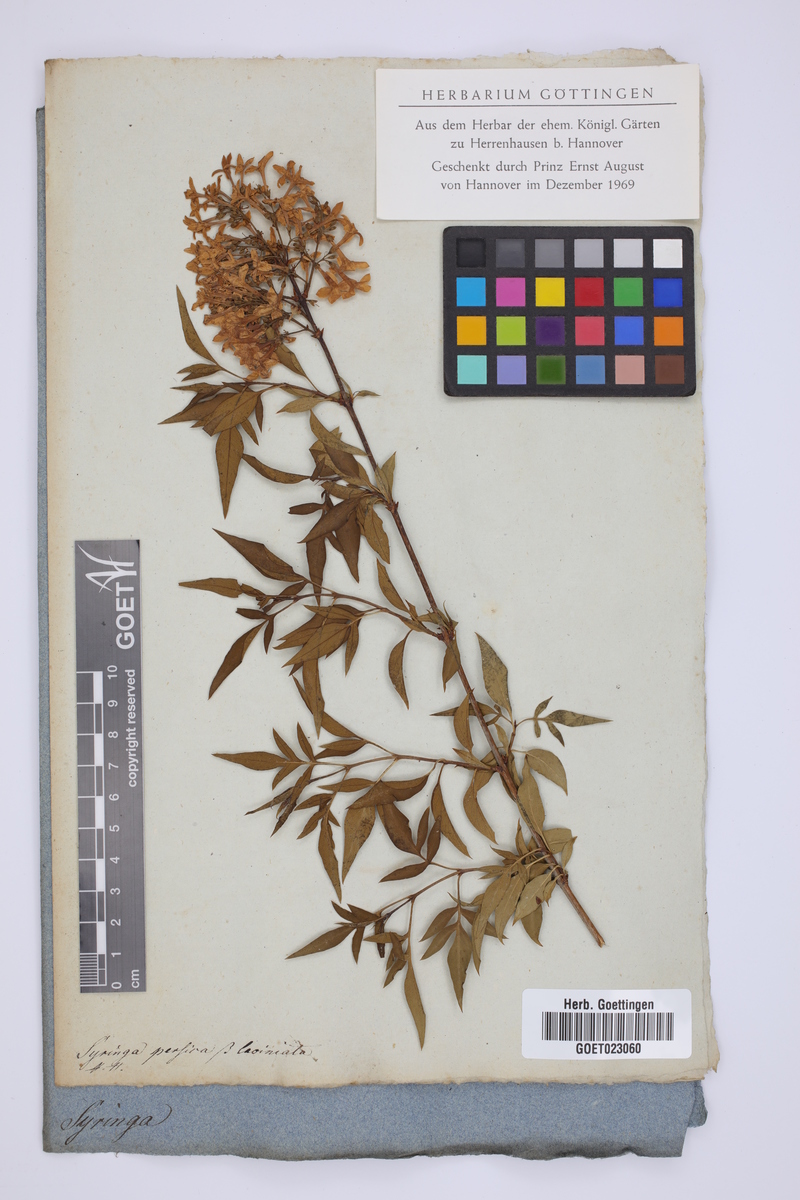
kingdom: Plantae
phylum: Tracheophyta
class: Magnoliopsida
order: Lamiales
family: Oleaceae
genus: Syringa
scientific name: Syringa persica
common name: Persian lilac
